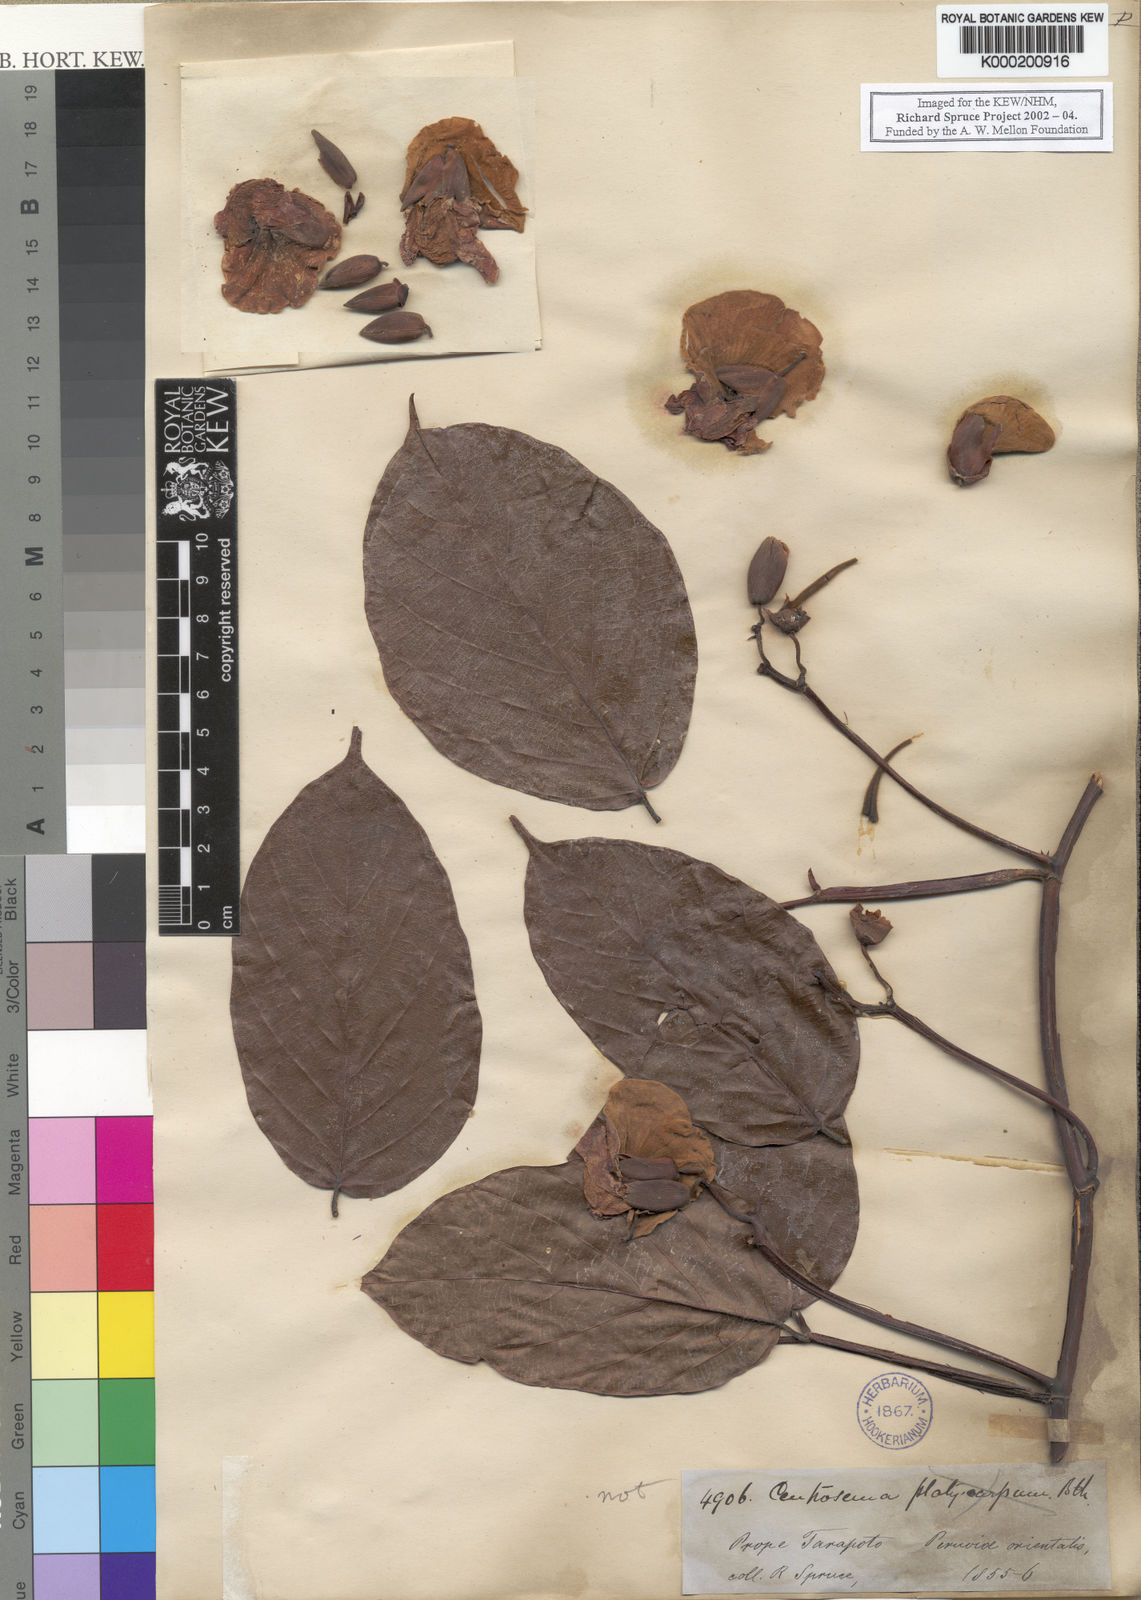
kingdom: Plantae
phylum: Tracheophyta
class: Magnoliopsida
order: Fabales
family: Fabaceae
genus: Centrosema
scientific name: Centrosema triquetrum
